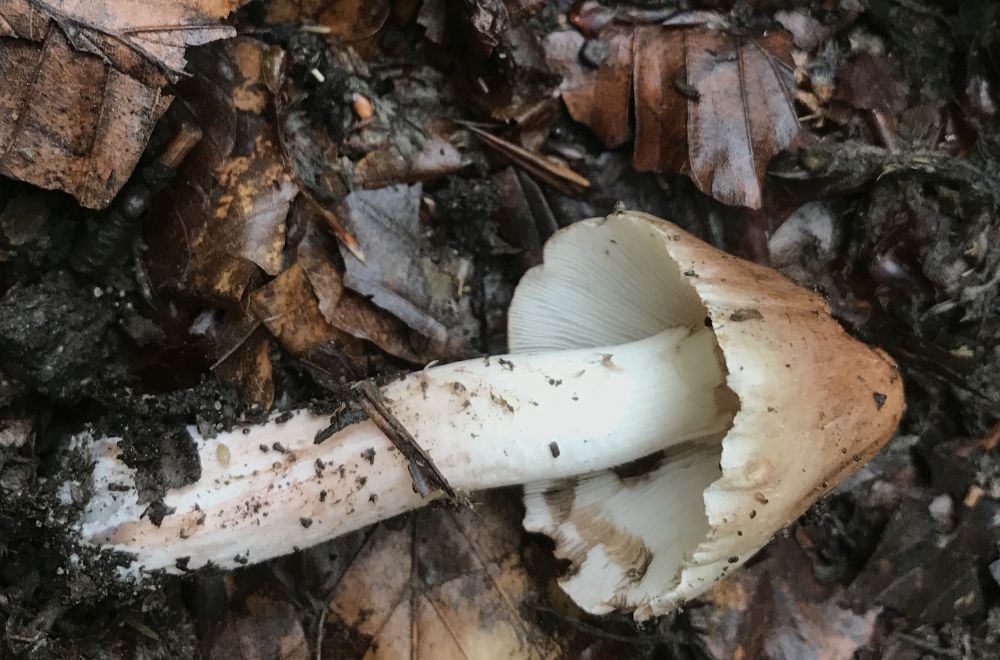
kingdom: Fungi
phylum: Basidiomycota
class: Agaricomycetes
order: Agaricales
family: Inocybaceae
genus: Inocybe
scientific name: Inocybe
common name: trævlhat
